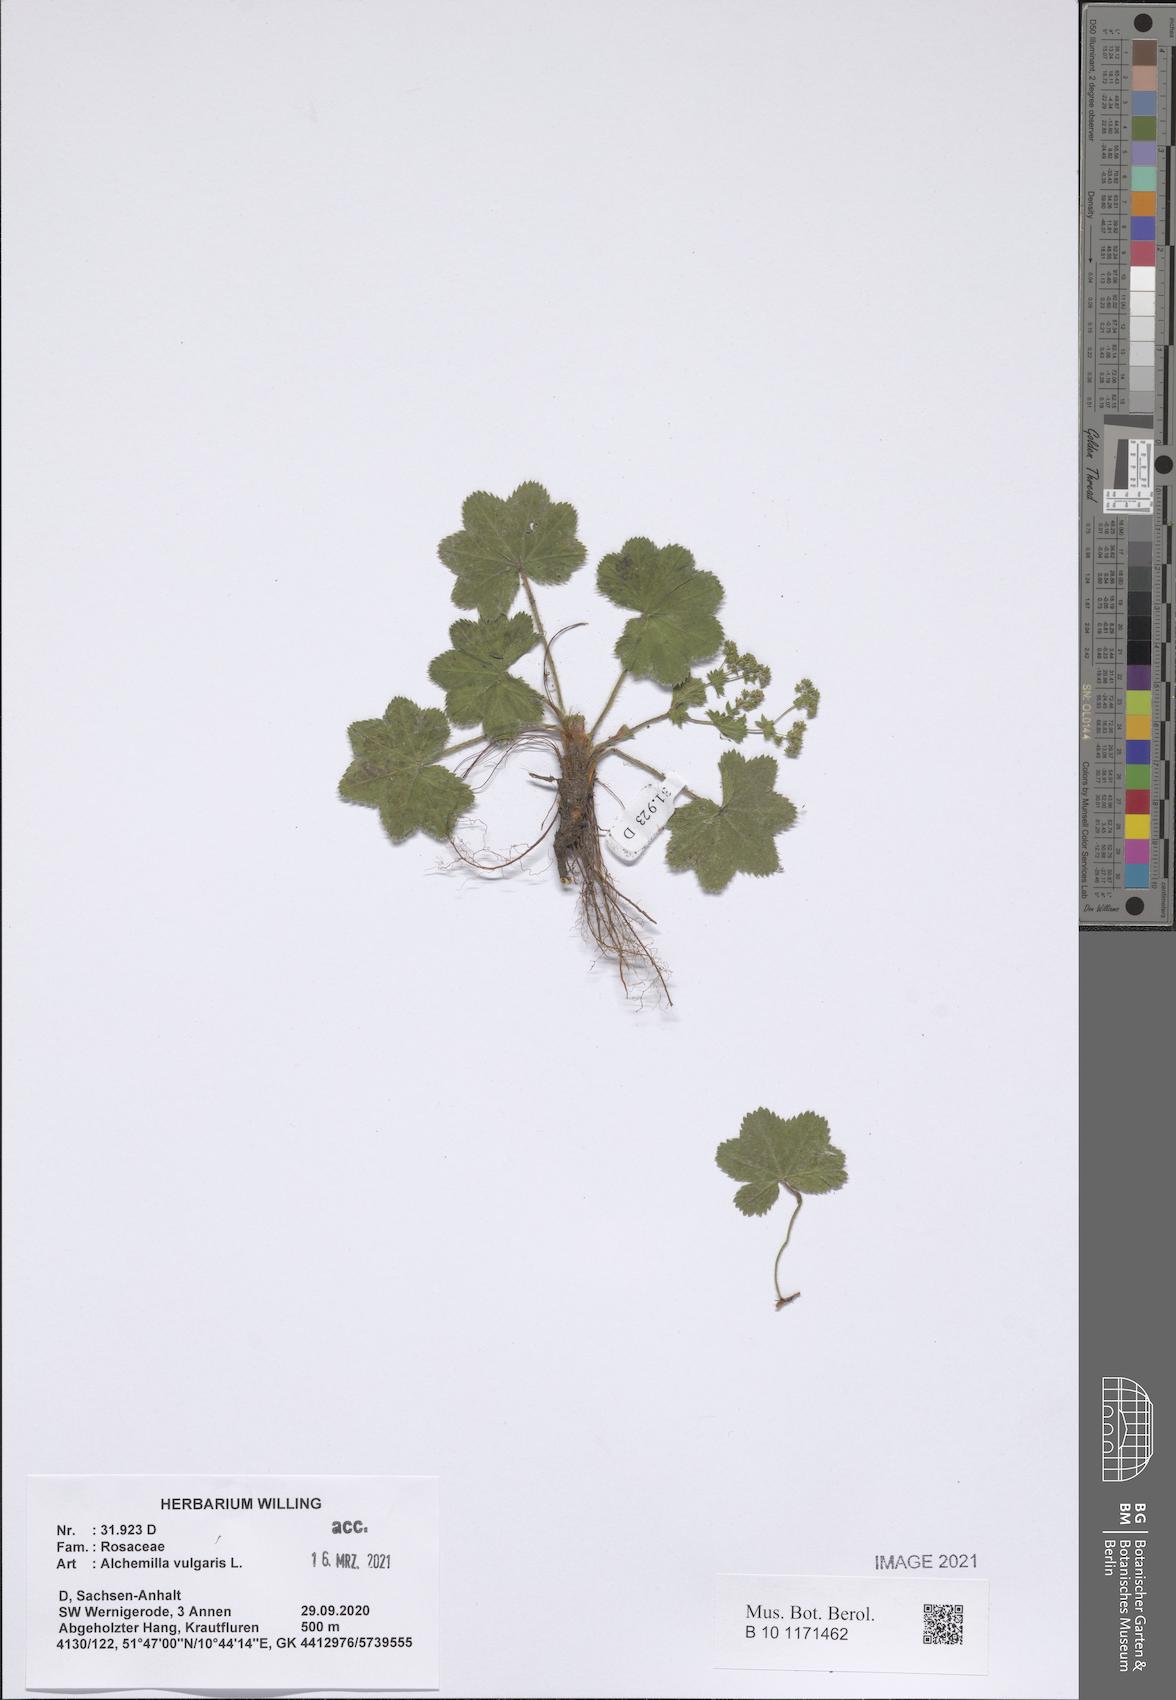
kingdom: Plantae
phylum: Tracheophyta
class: Magnoliopsida
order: Rosales
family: Rosaceae
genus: Alchemilla
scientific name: Alchemilla vulgaris
